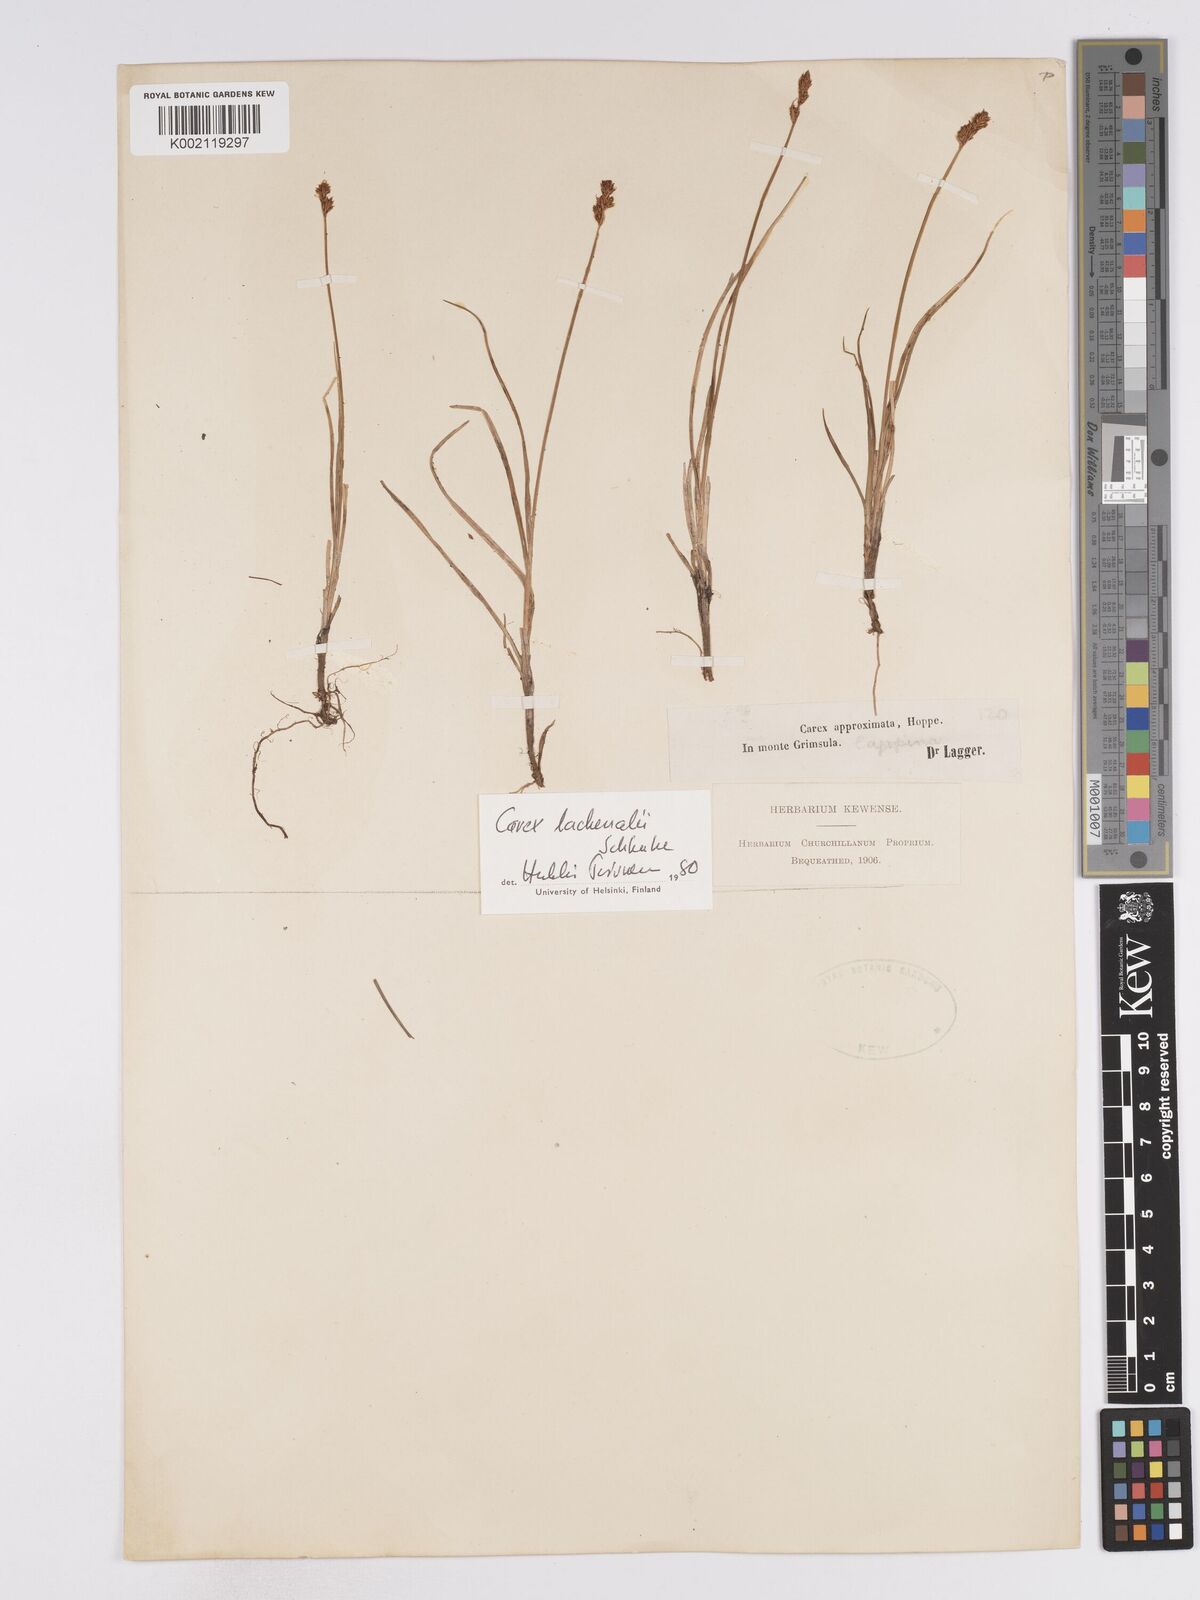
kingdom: Plantae
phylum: Tracheophyta
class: Liliopsida
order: Poales
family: Cyperaceae
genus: Carex
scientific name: Carex lachenalii
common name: Hare's-foot sedge
